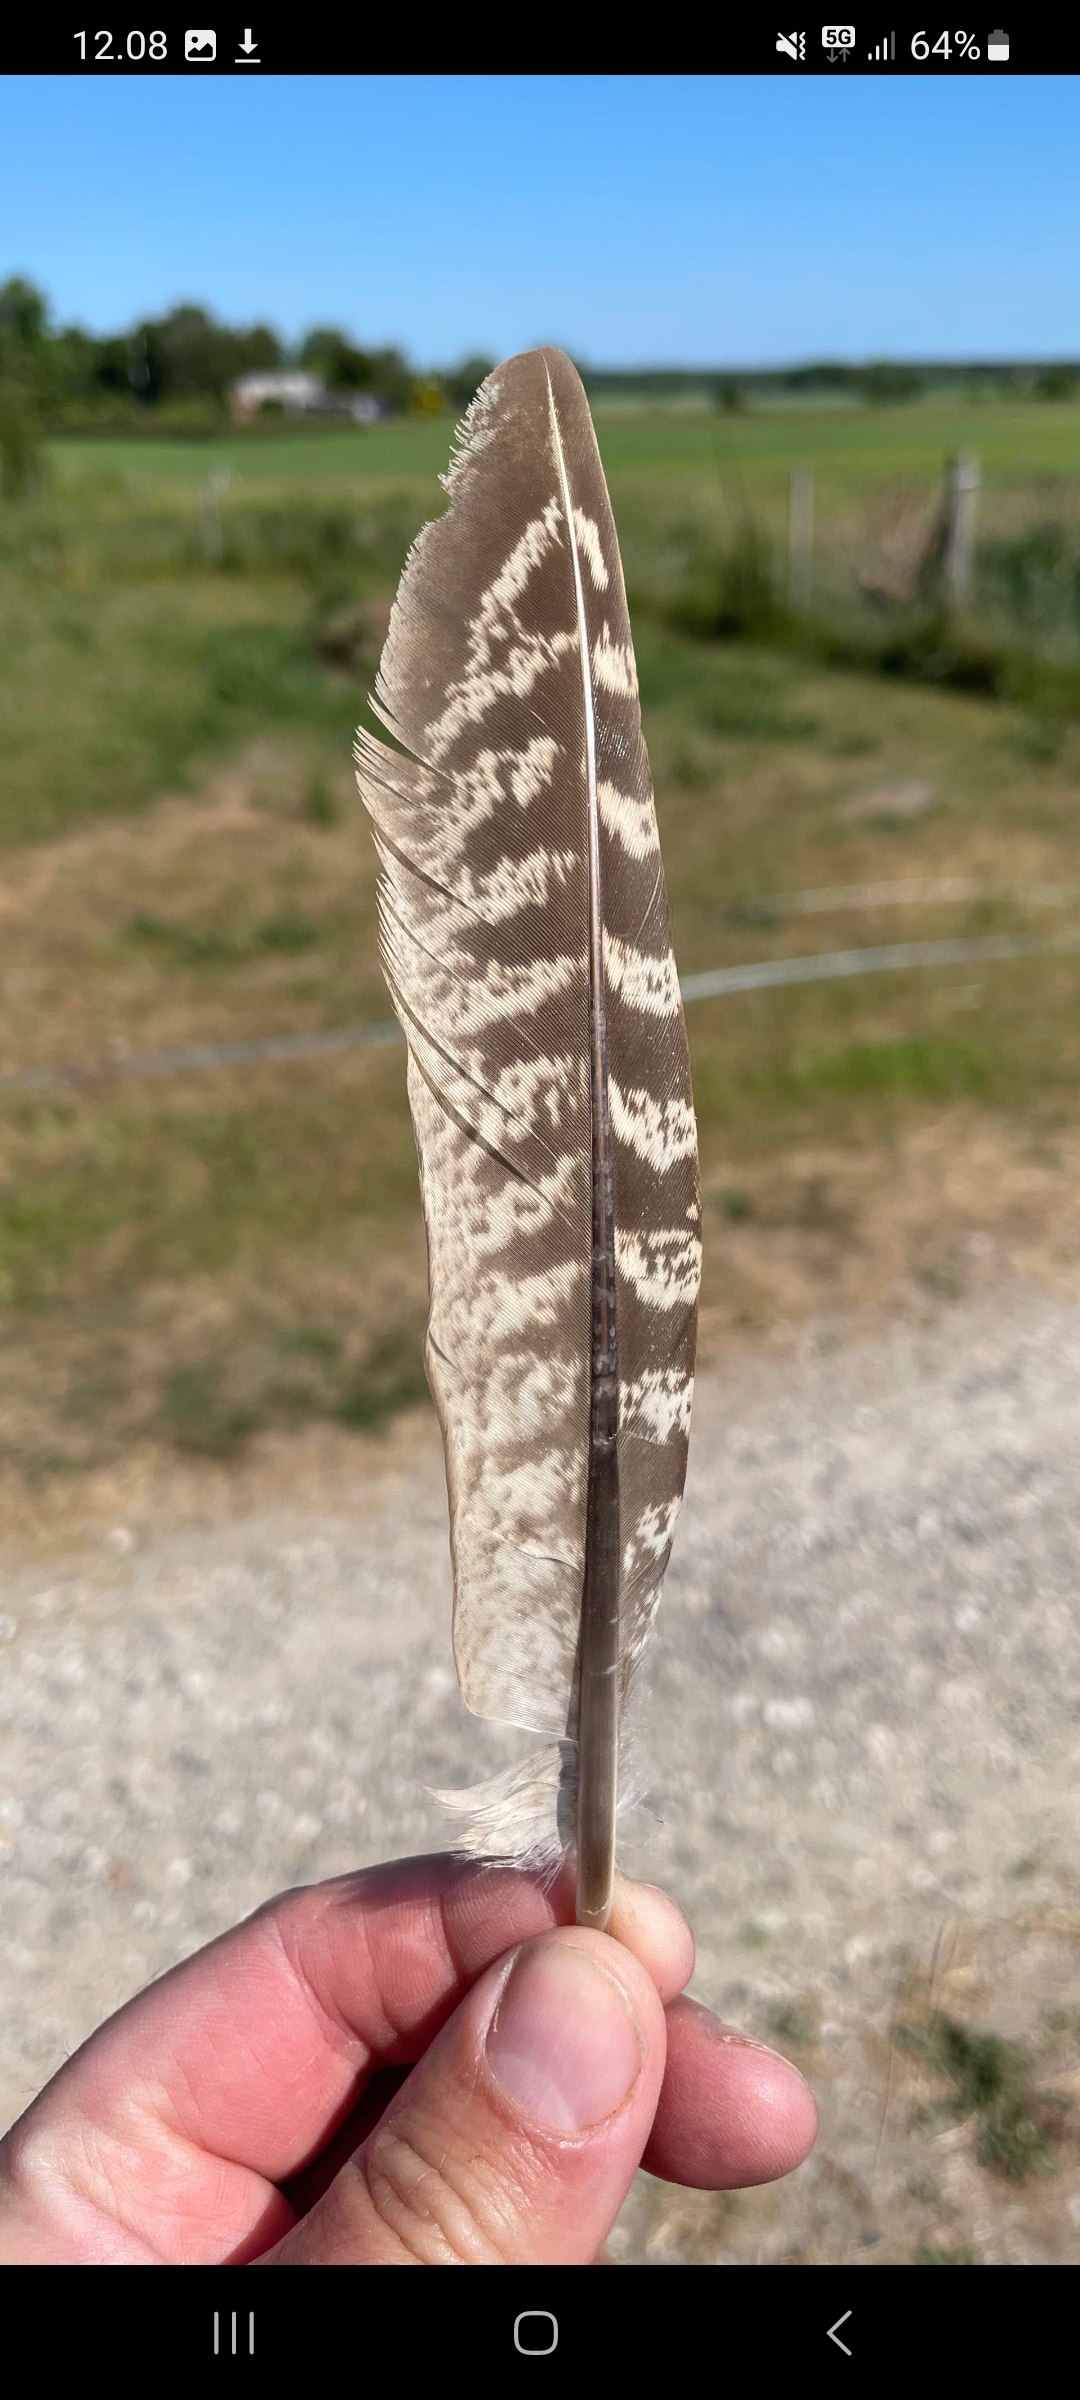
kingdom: Animalia
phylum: Chordata
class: Aves
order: Galliformes
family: Phasianidae
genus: Phasianus
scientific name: Phasianus colchicus
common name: Fasan
